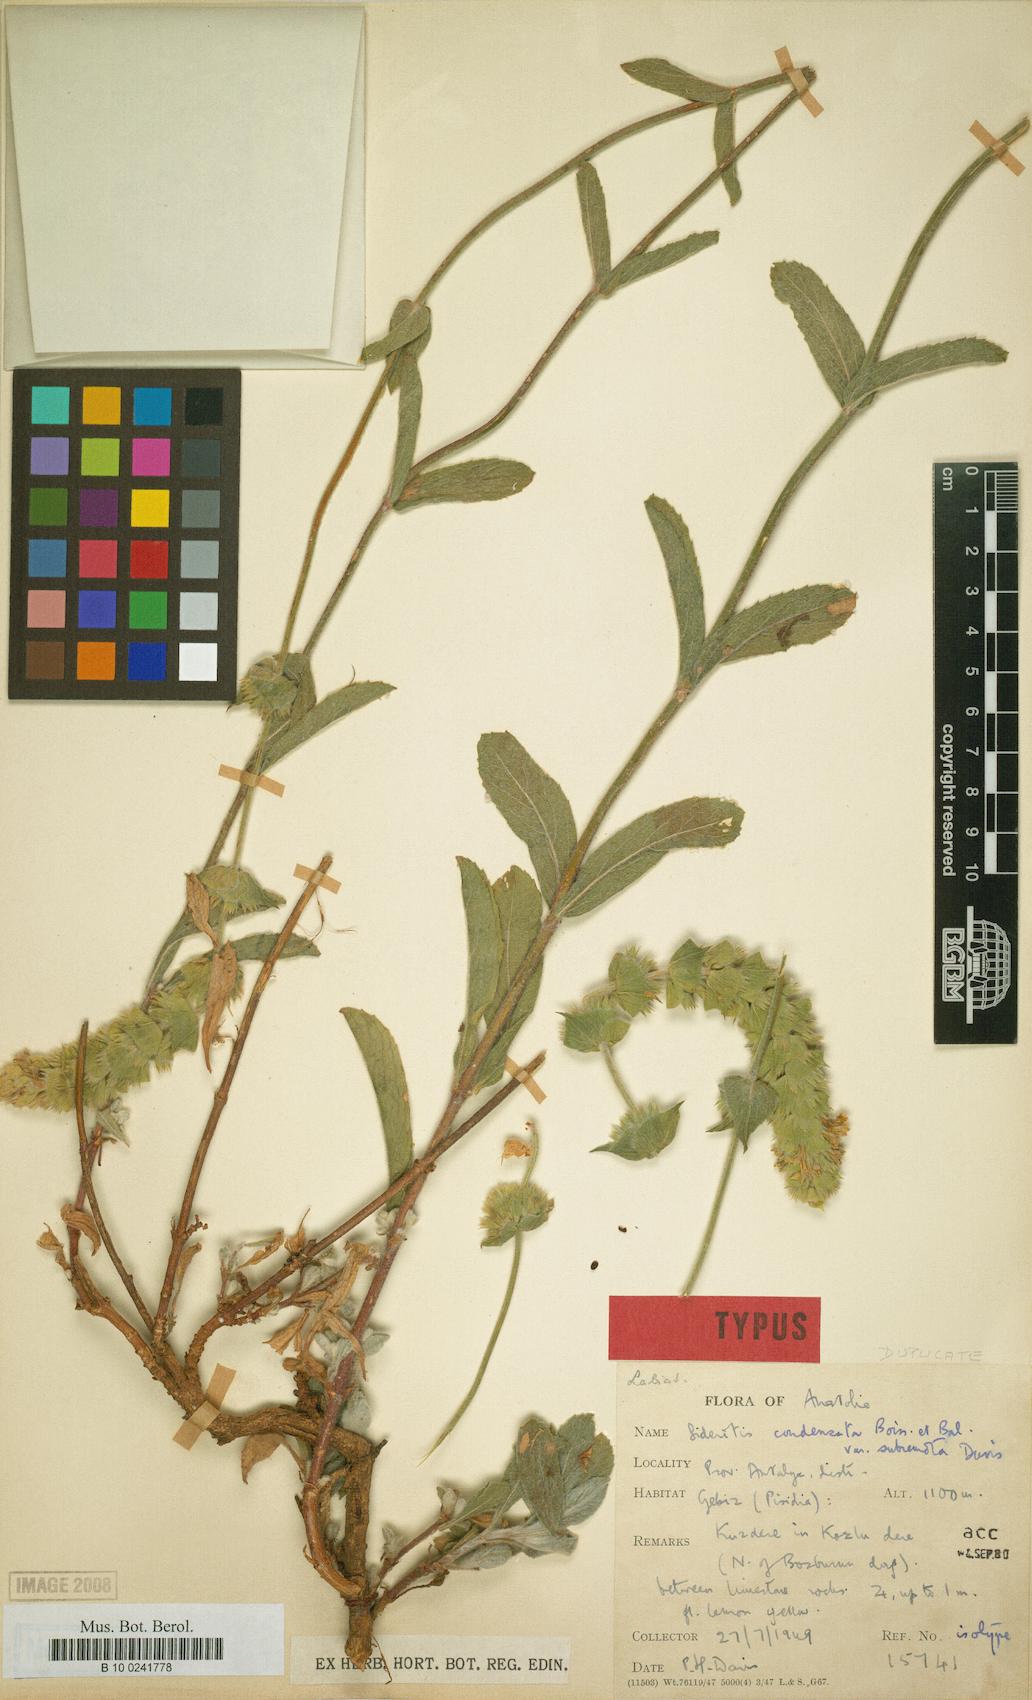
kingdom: Plantae
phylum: Tracheophyta
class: Magnoliopsida
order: Lamiales
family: Lamiaceae
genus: Sideritis
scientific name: Sideritis condensata
